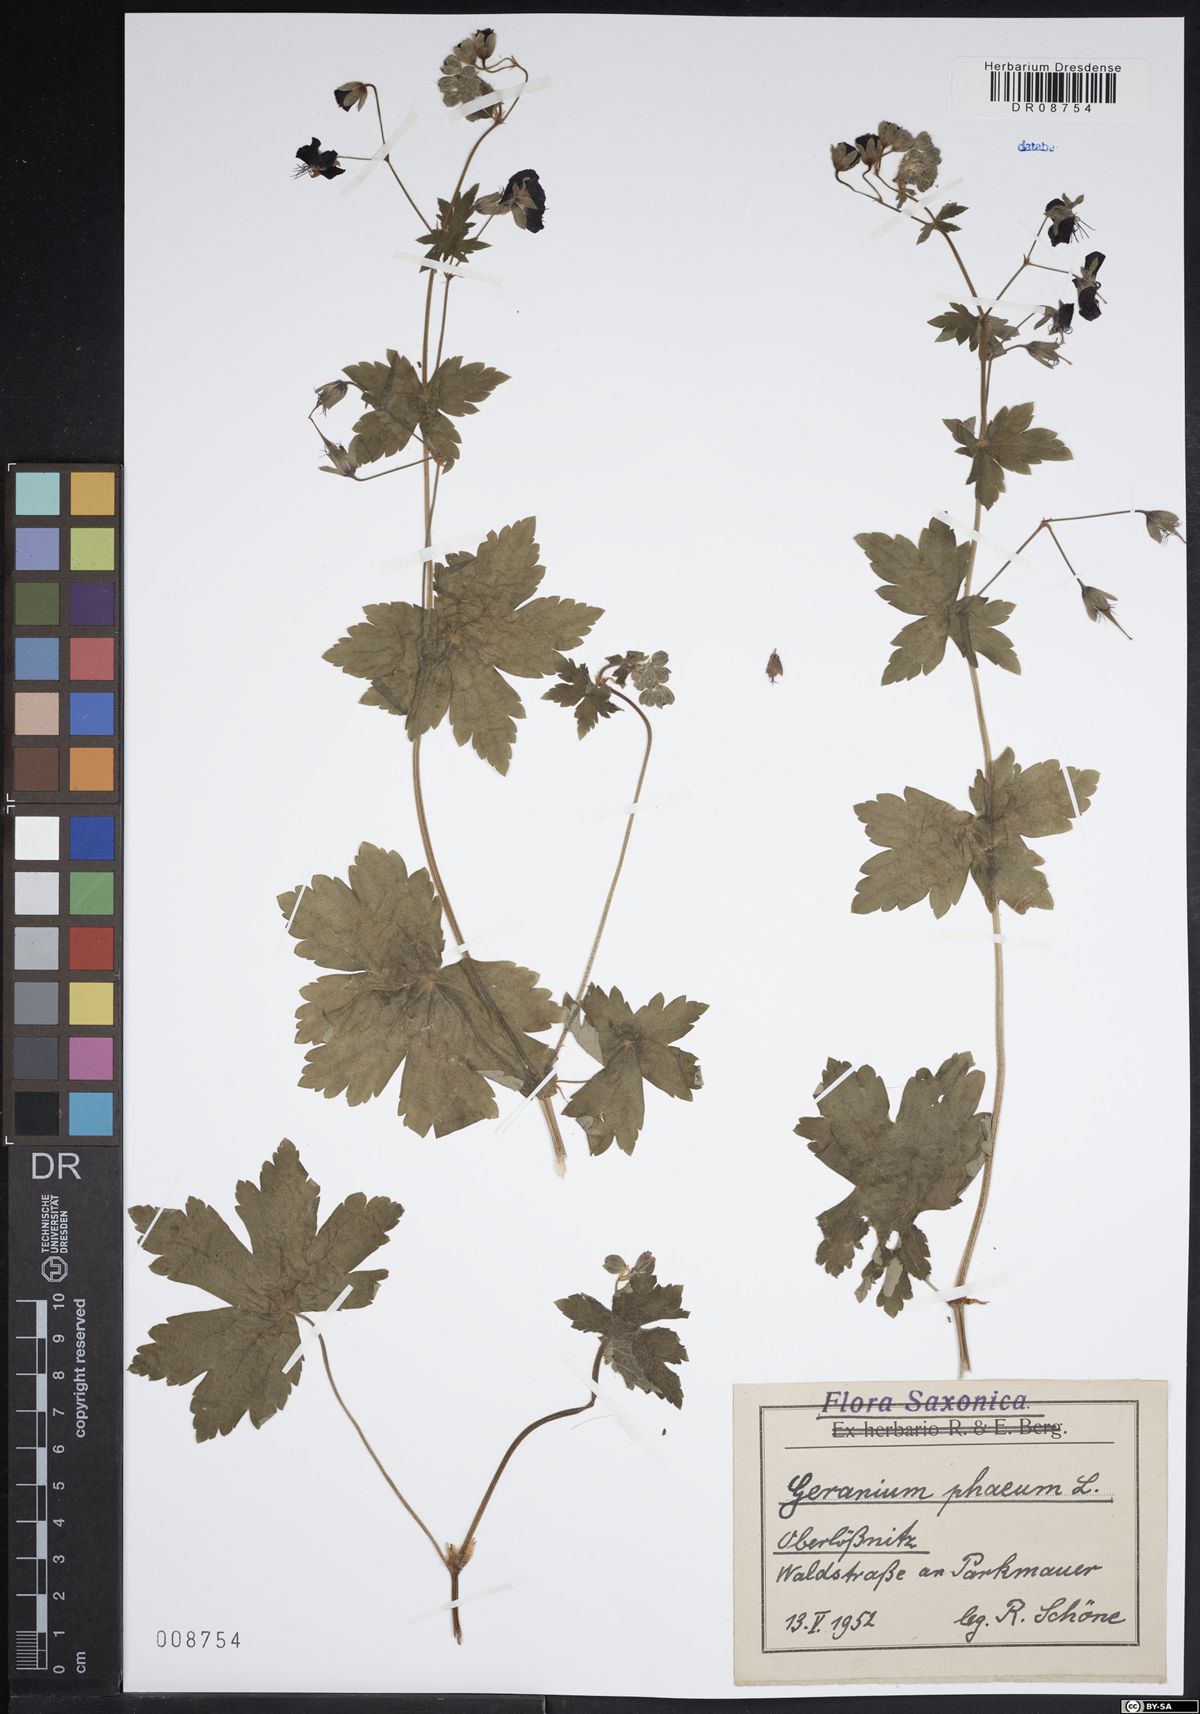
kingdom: Plantae
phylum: Tracheophyta
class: Magnoliopsida
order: Geraniales
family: Geraniaceae
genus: Geranium
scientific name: Geranium phaeum
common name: Dusky crane's-bill
